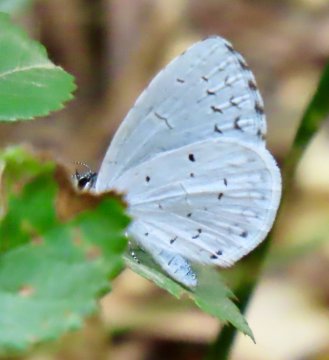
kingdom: Animalia
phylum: Arthropoda
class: Insecta
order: Lepidoptera
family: Lycaenidae
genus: Cyaniris
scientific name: Cyaniris neglecta
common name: Summer Azure
